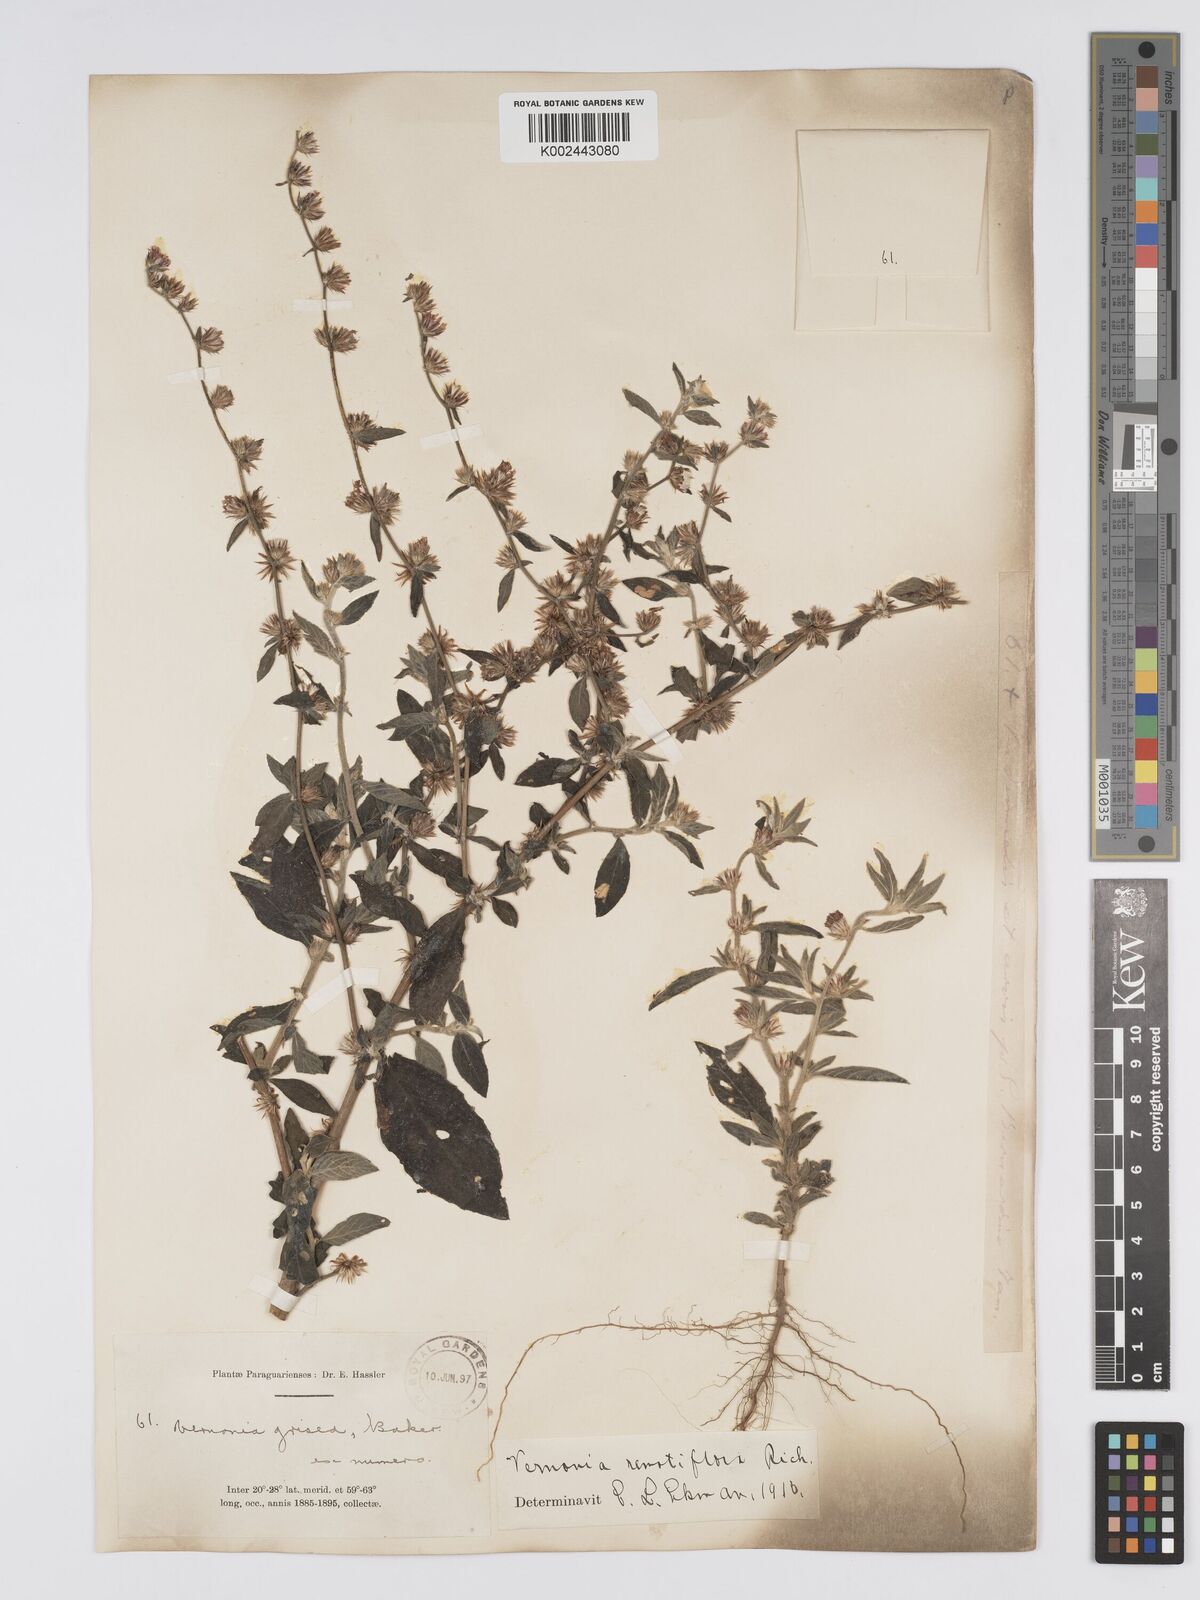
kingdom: Plantae
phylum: Tracheophyta
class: Magnoliopsida
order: Asterales
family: Asteraceae
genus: Lepidaploa
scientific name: Lepidaploa remotiflora
